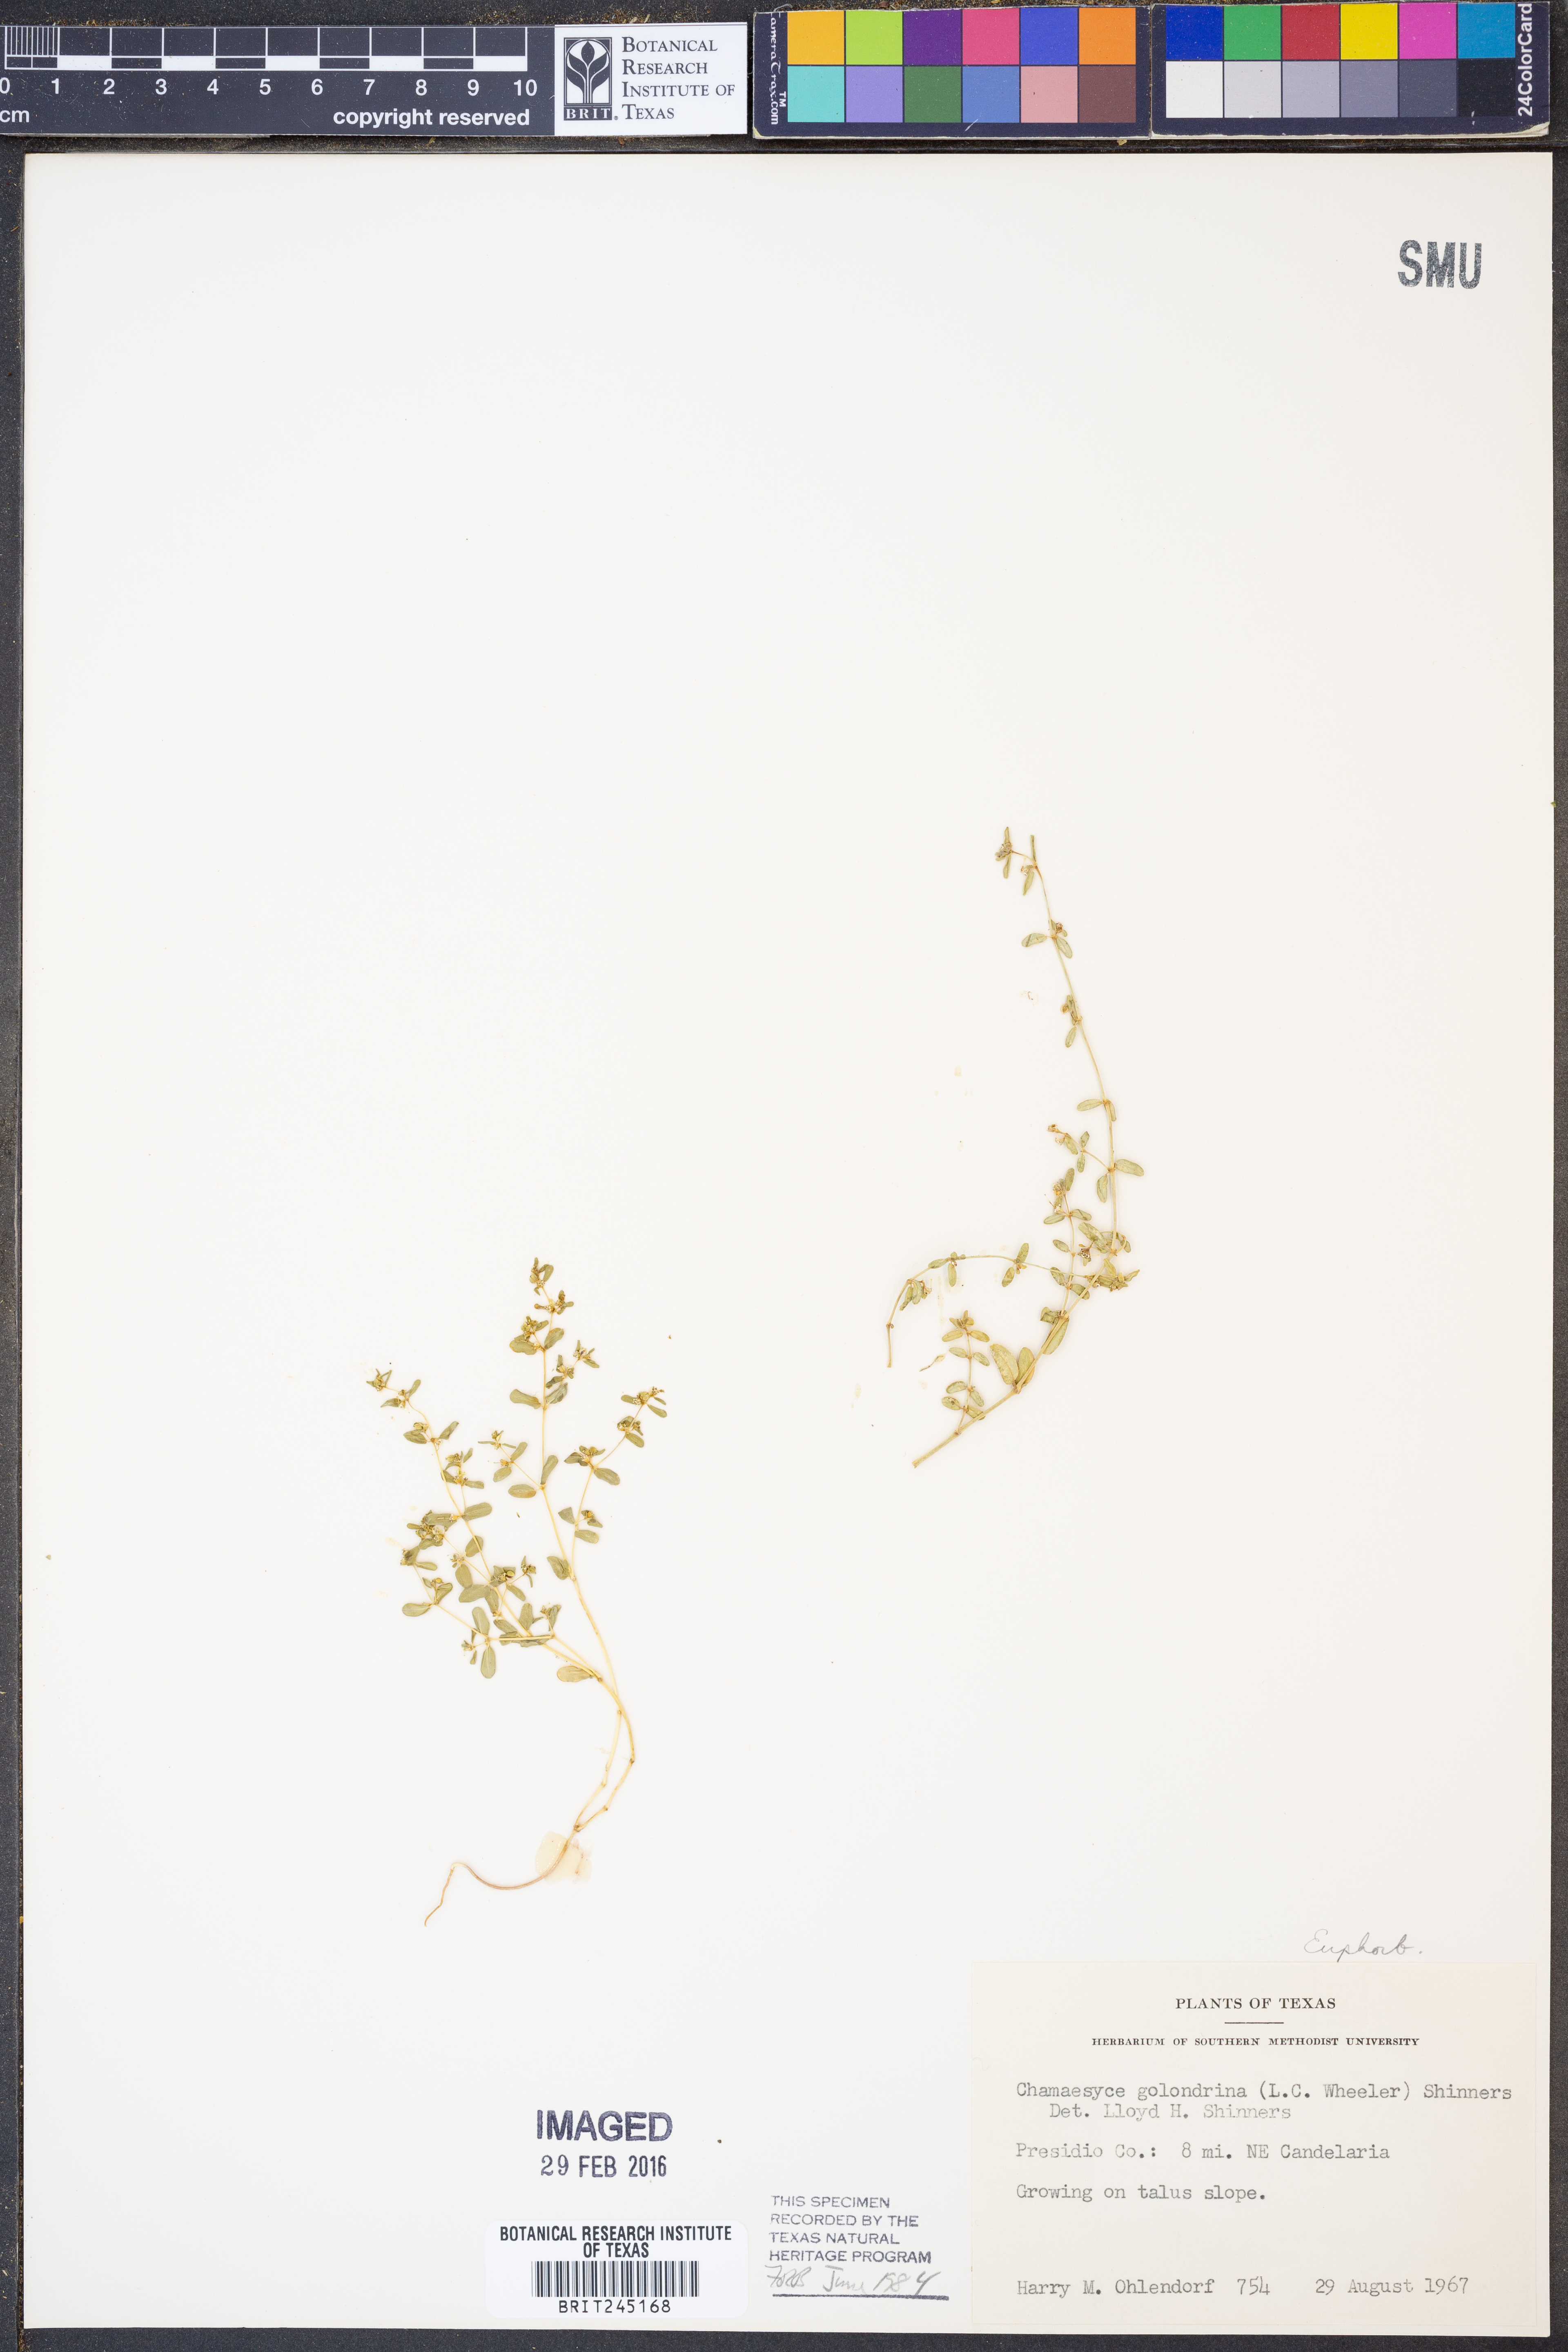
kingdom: Plantae
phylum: Tracheophyta
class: Magnoliopsida
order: Malpighiales
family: Euphorbiaceae
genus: Euphorbia
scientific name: Euphorbia golondrina
